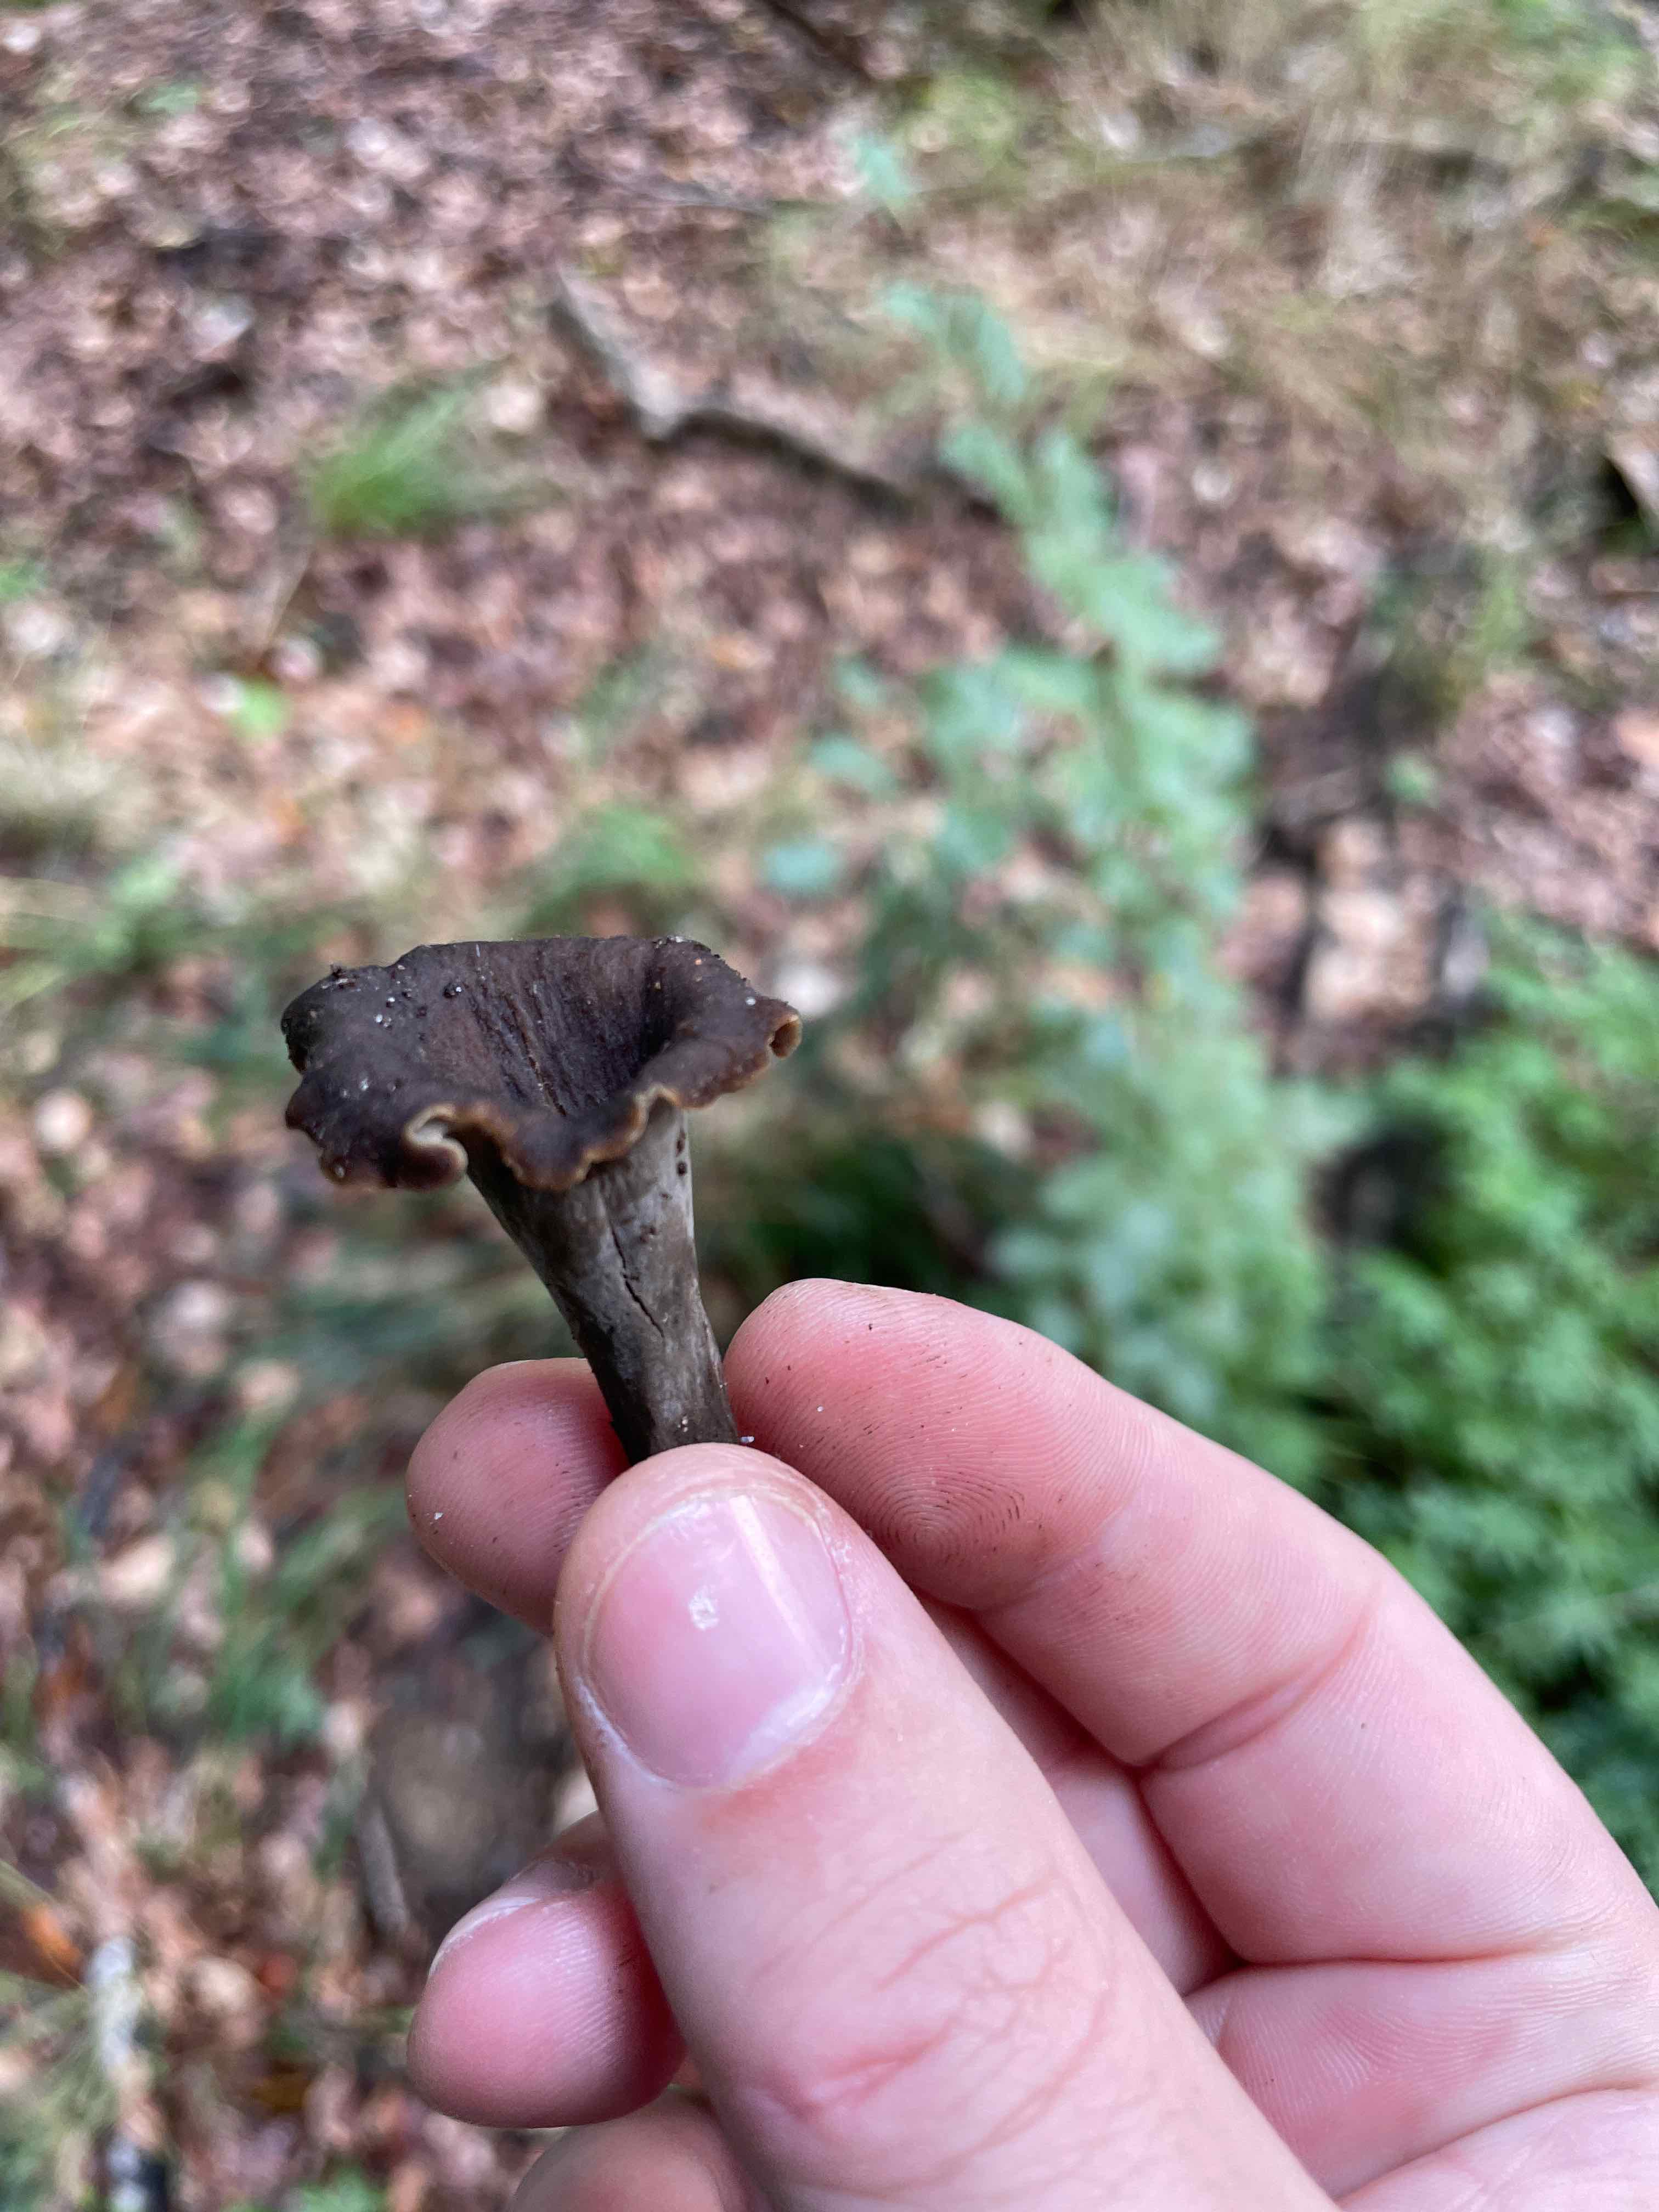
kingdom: Fungi
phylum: Basidiomycota
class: Agaricomycetes
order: Cantharellales
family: Hydnaceae
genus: Craterellus
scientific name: Craterellus cornucopioides
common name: trompetsvamp
